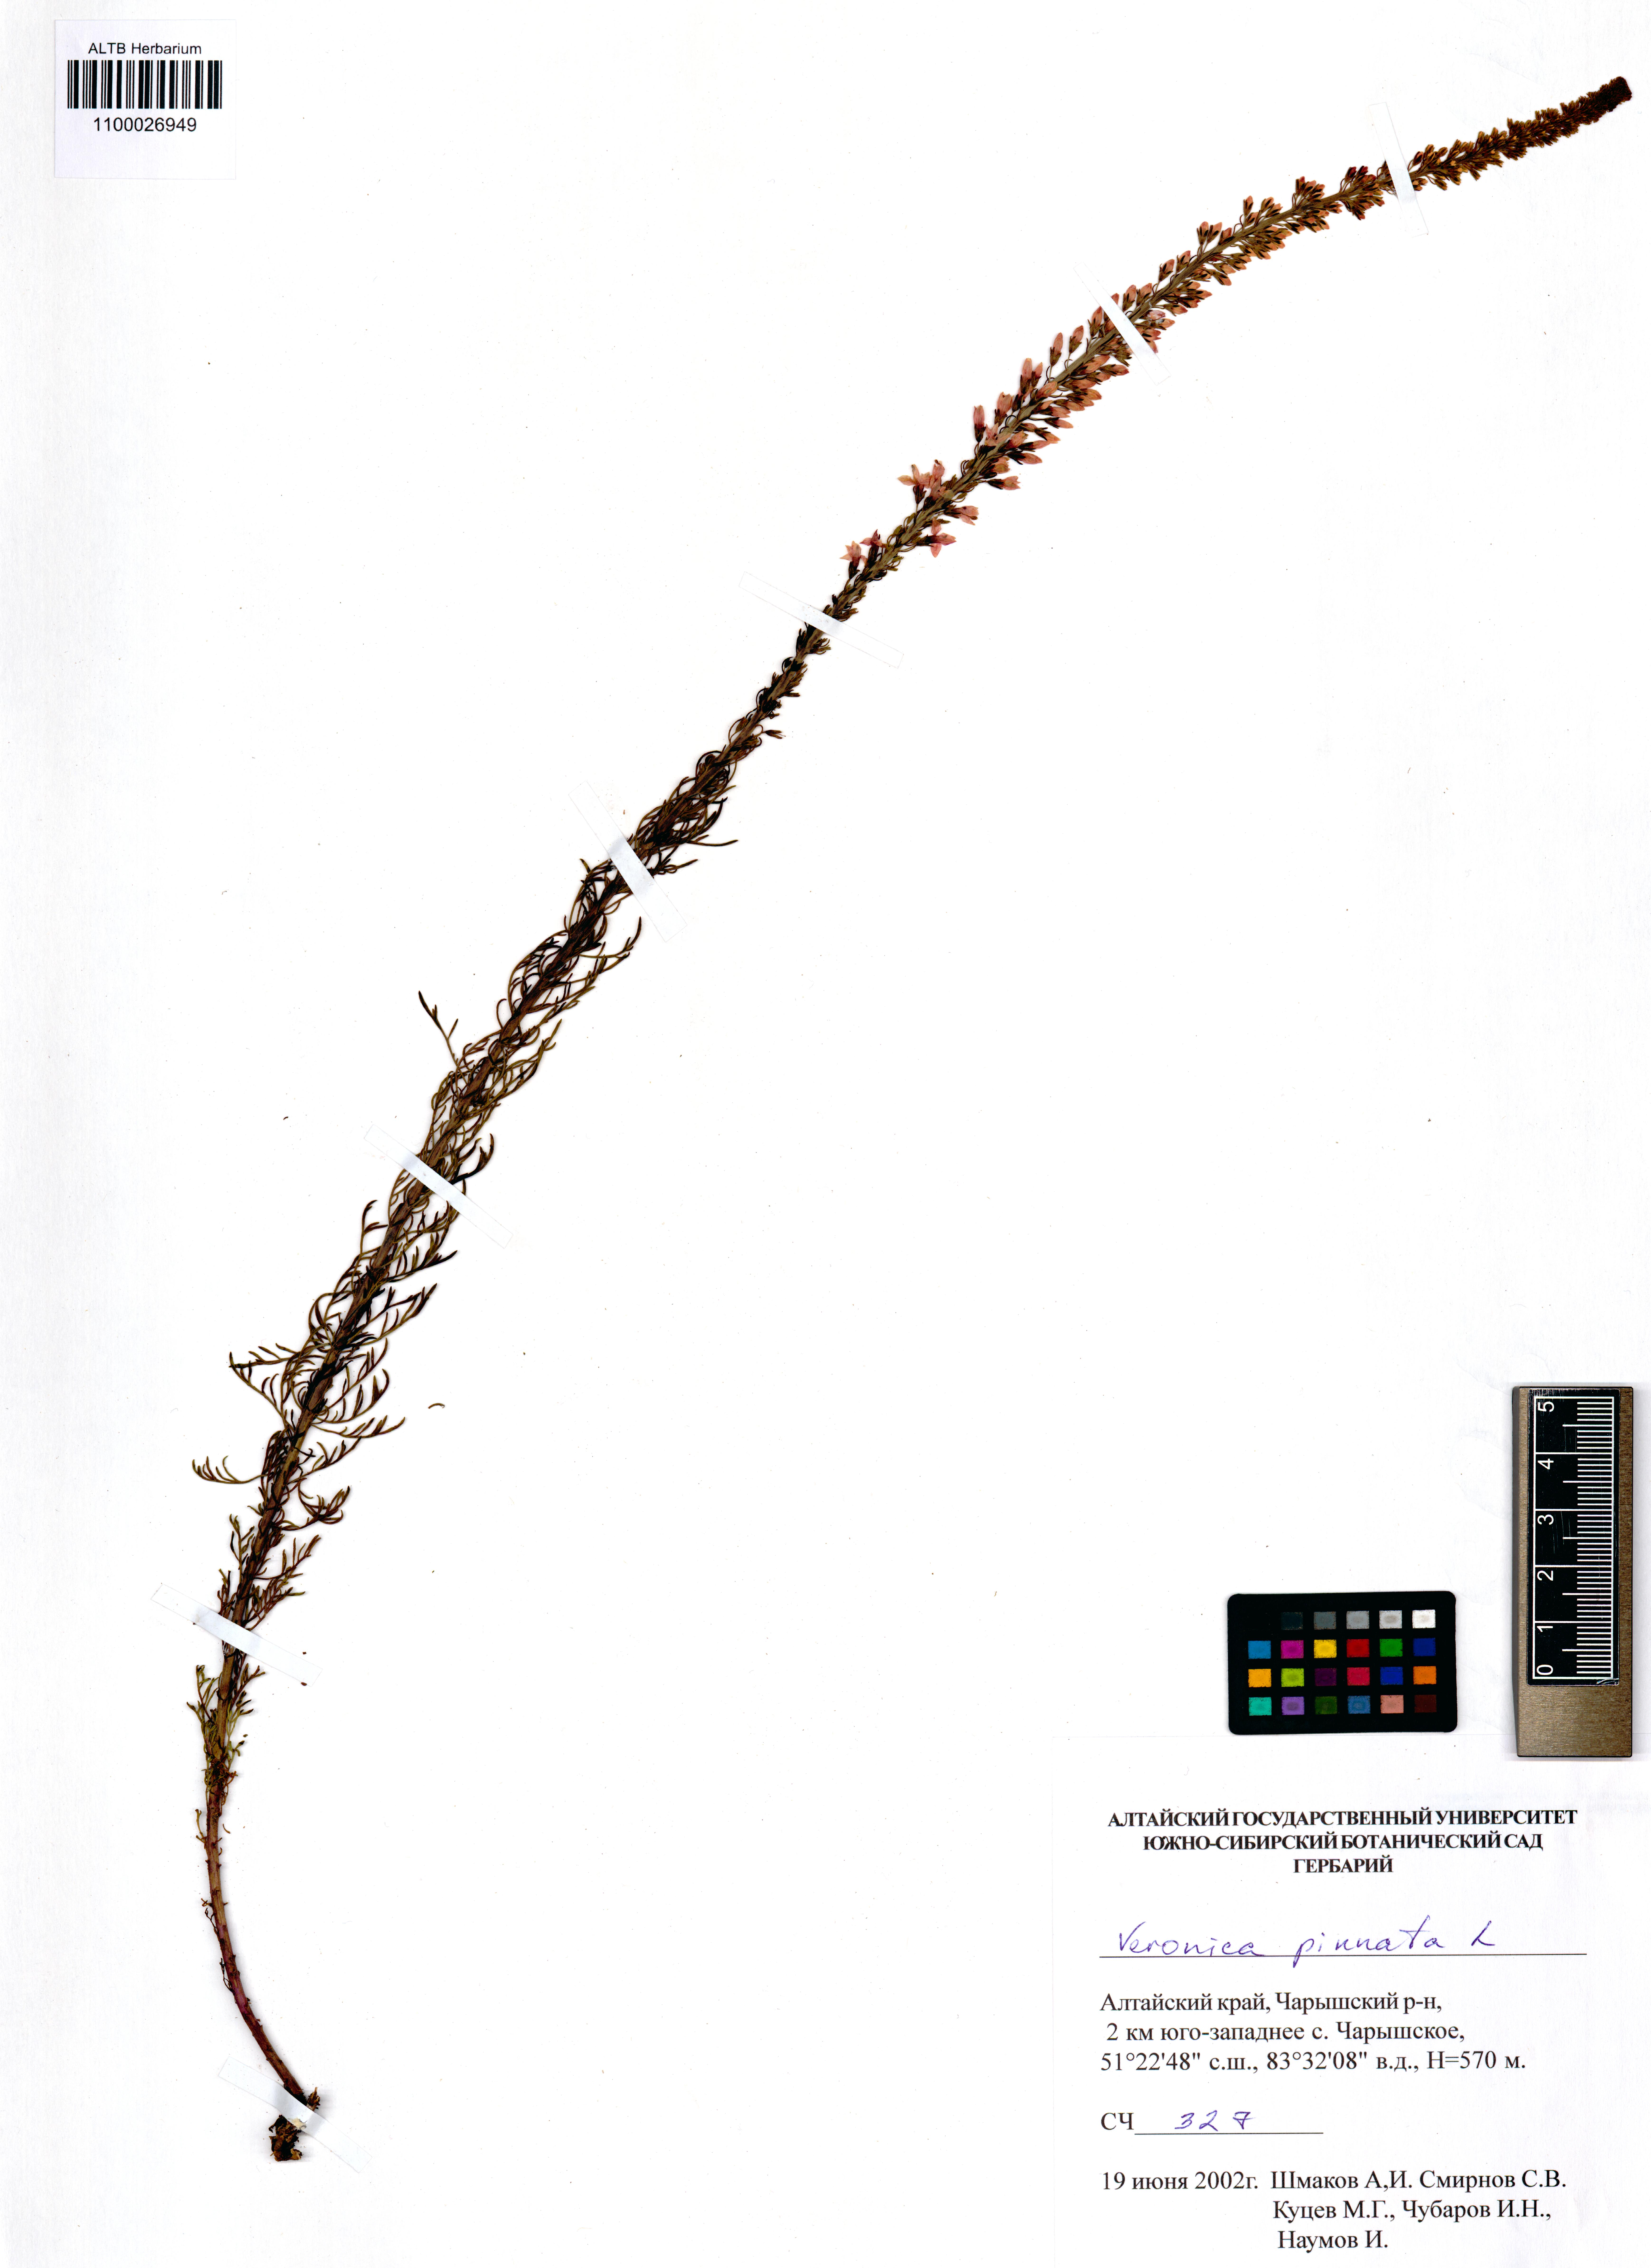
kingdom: Plantae
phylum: Tracheophyta
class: Magnoliopsida
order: Lamiales
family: Plantaginaceae
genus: Veronica
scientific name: Veronica pinnata
